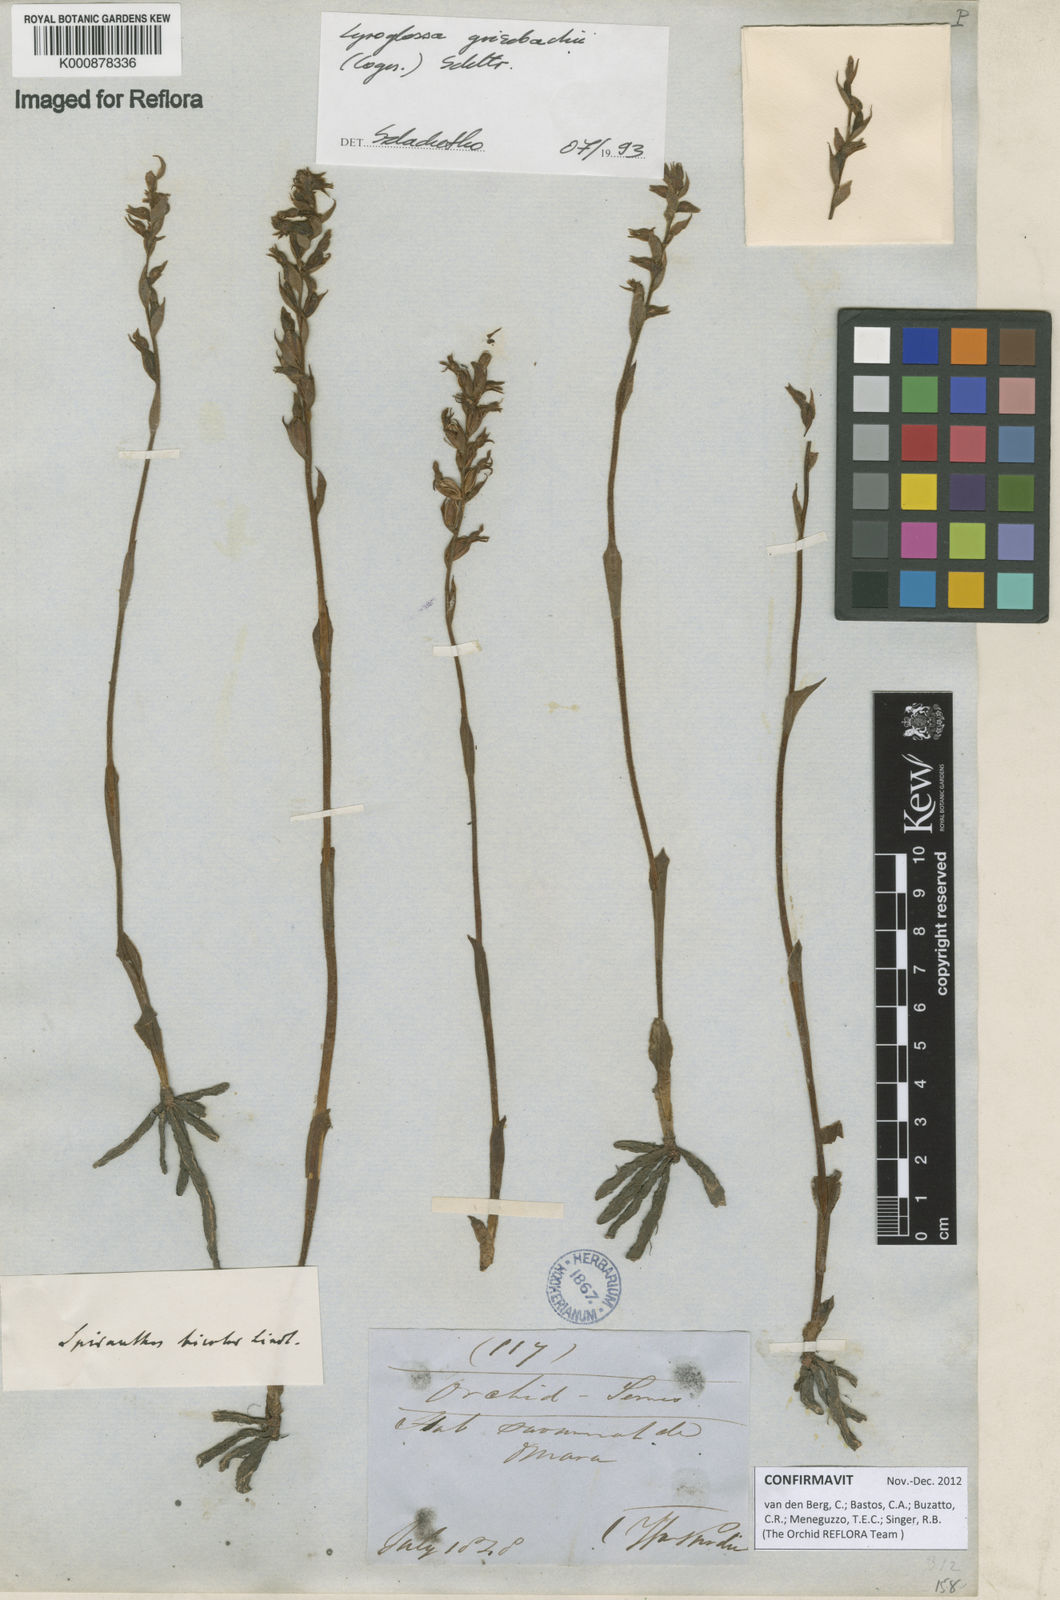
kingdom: Plantae
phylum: Tracheophyta
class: Liliopsida
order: Asparagales
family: Orchidaceae
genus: Lyroglossa
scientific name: Lyroglossa grisebachii
